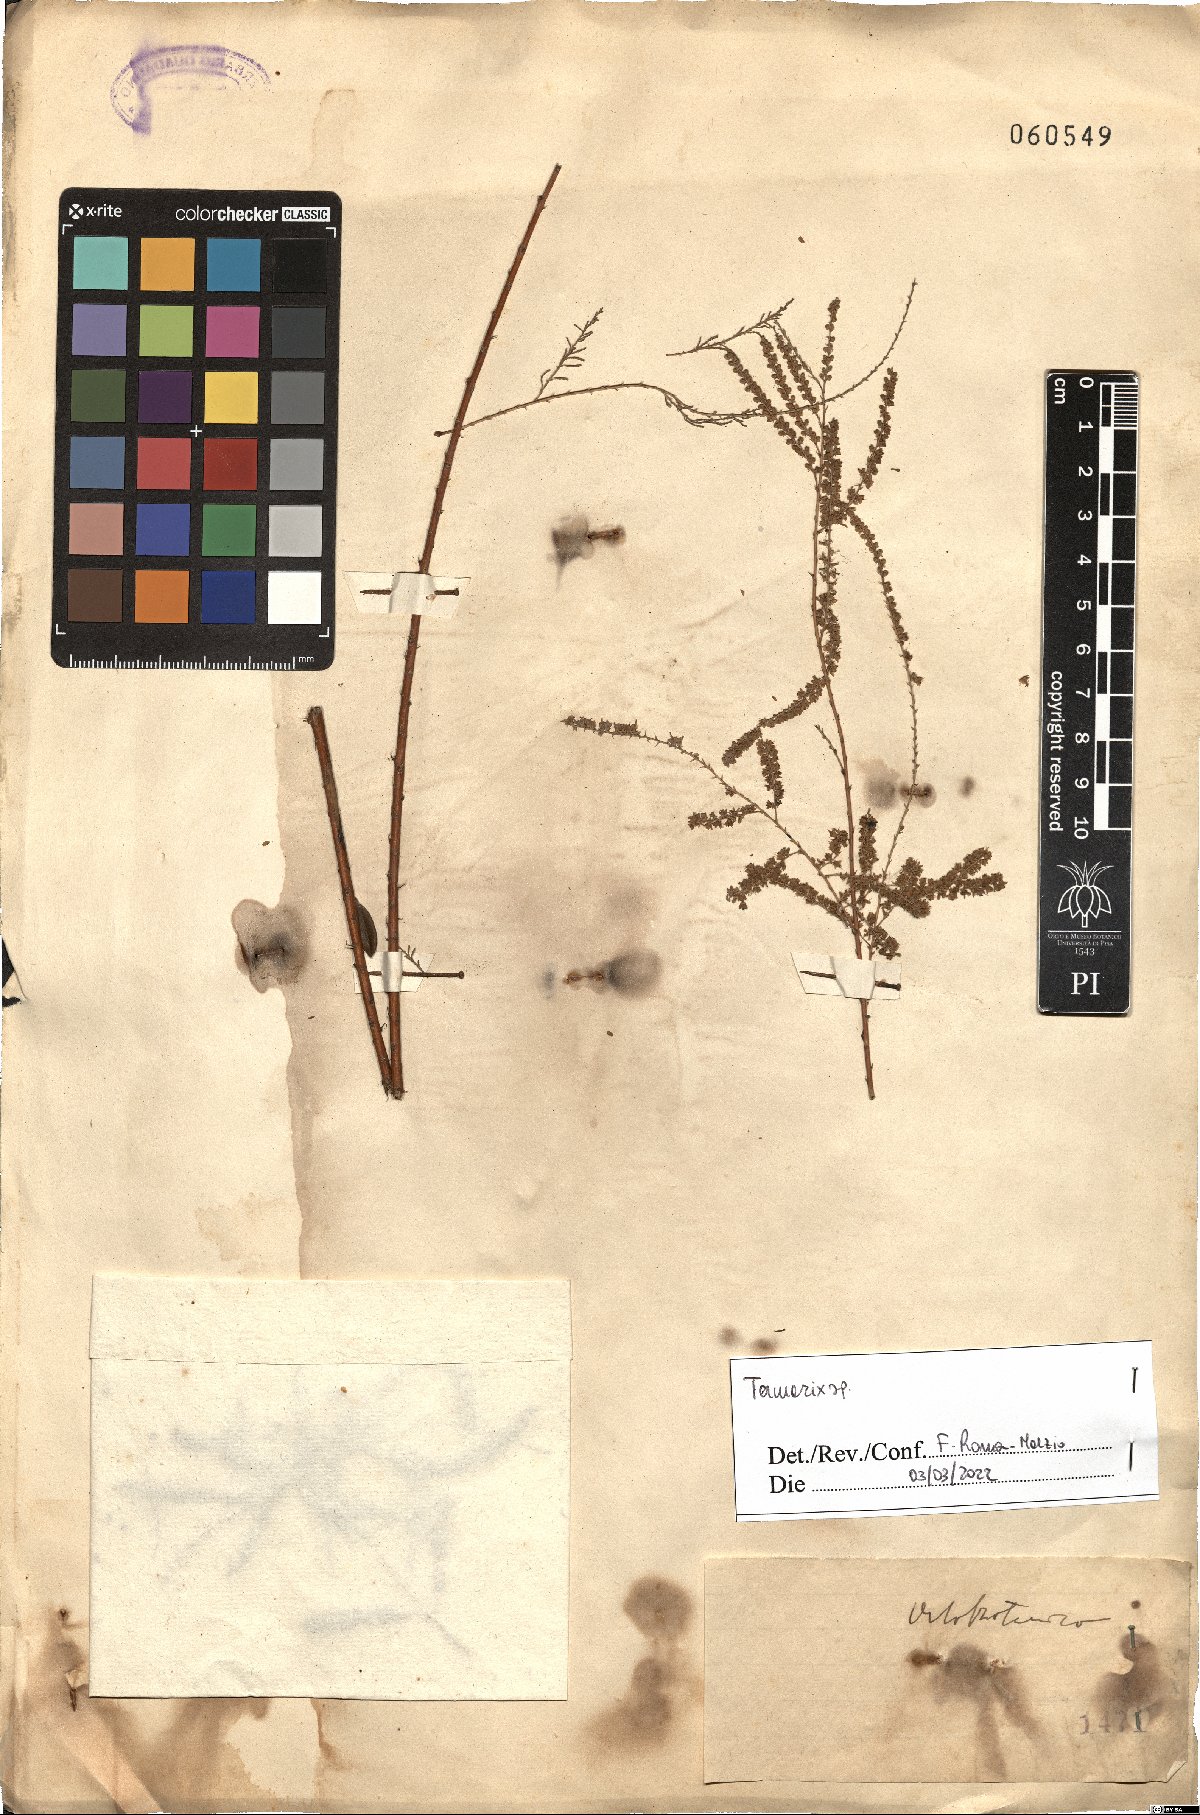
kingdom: Plantae
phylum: Tracheophyta
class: Magnoliopsida
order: Caryophyllales
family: Tamaricaceae
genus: Tamarix
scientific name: Tamarix
